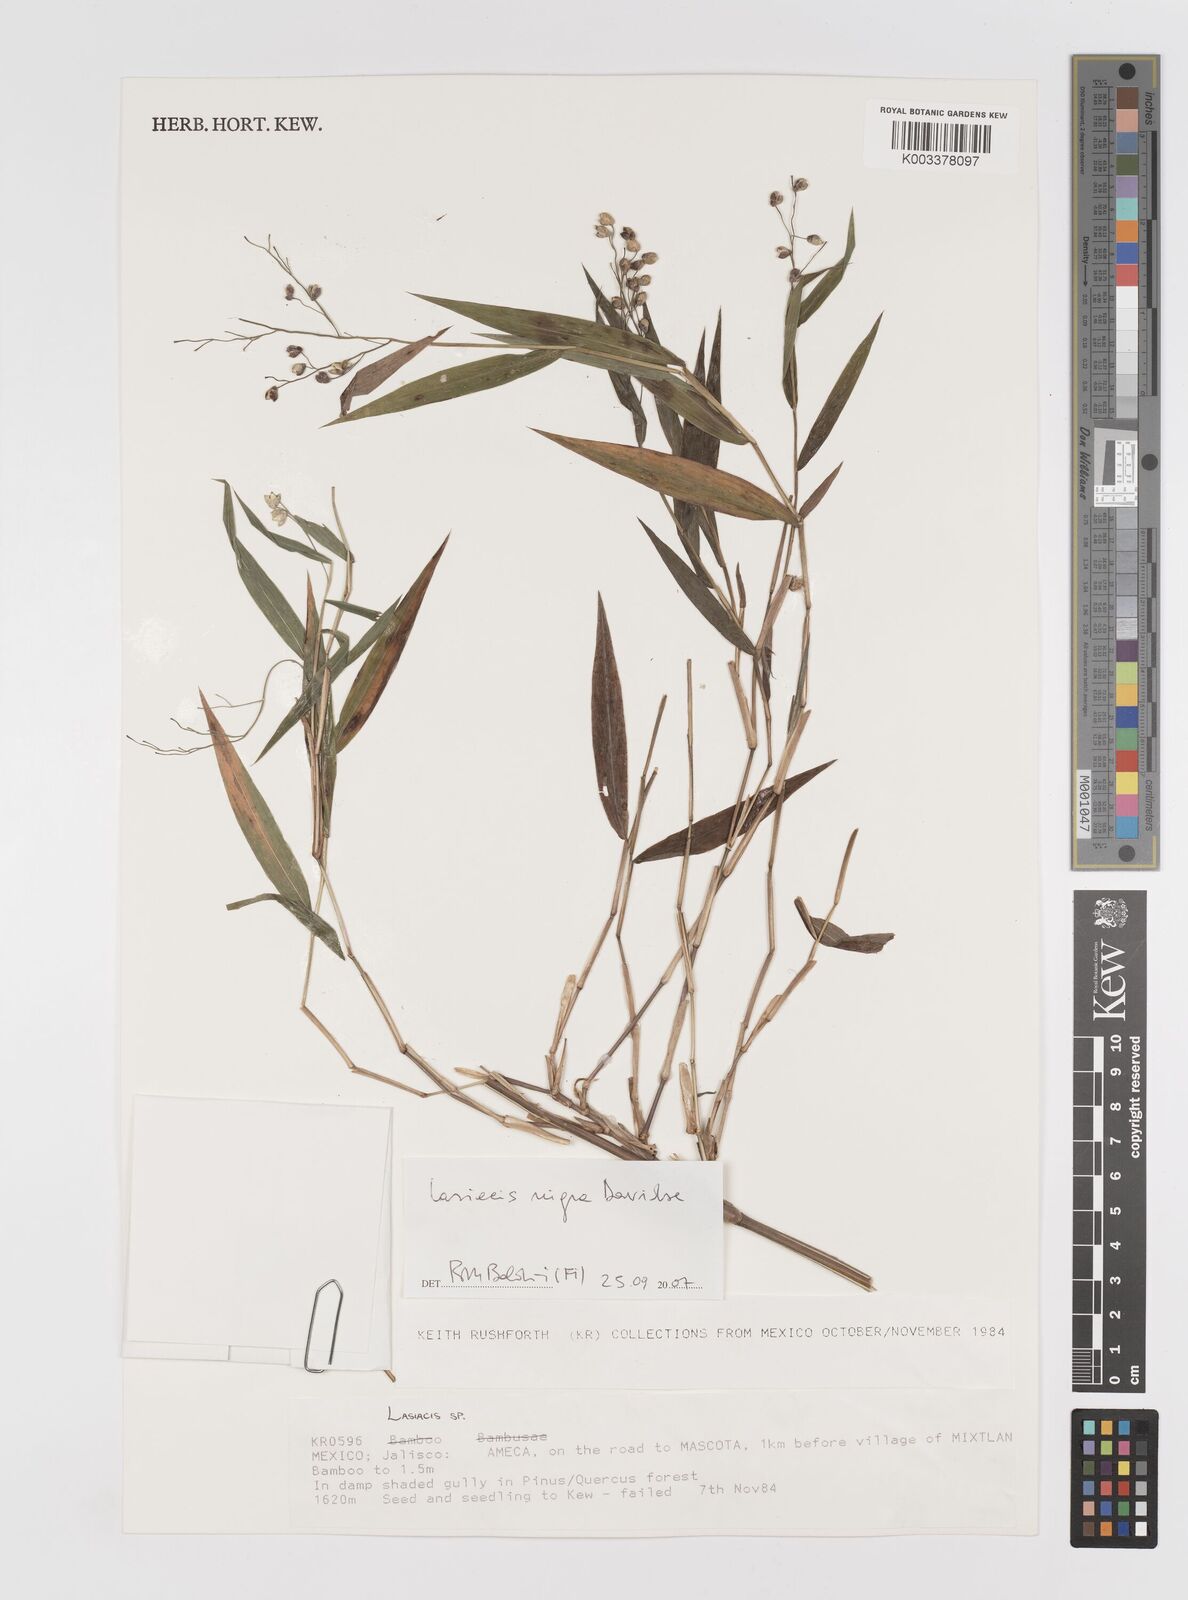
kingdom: Plantae
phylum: Tracheophyta
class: Liliopsida
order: Poales
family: Poaceae
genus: Lasiacis
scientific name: Lasiacis nigra
